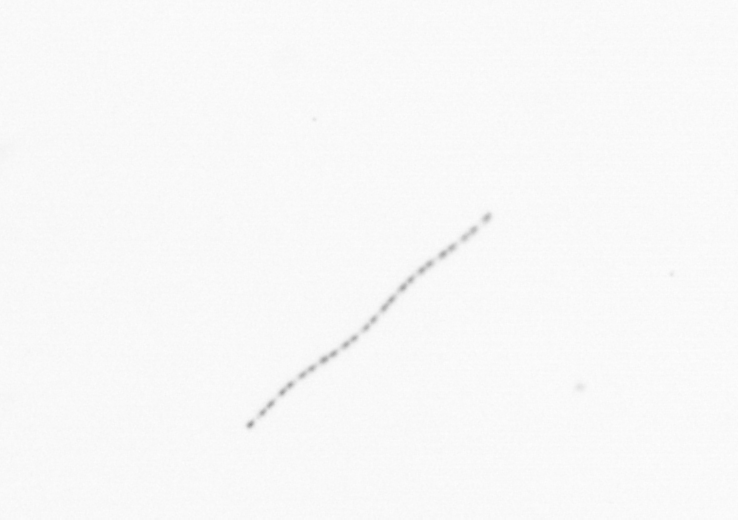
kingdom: Chromista
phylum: Ochrophyta
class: Bacillariophyceae
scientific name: Bacillariophyceae
